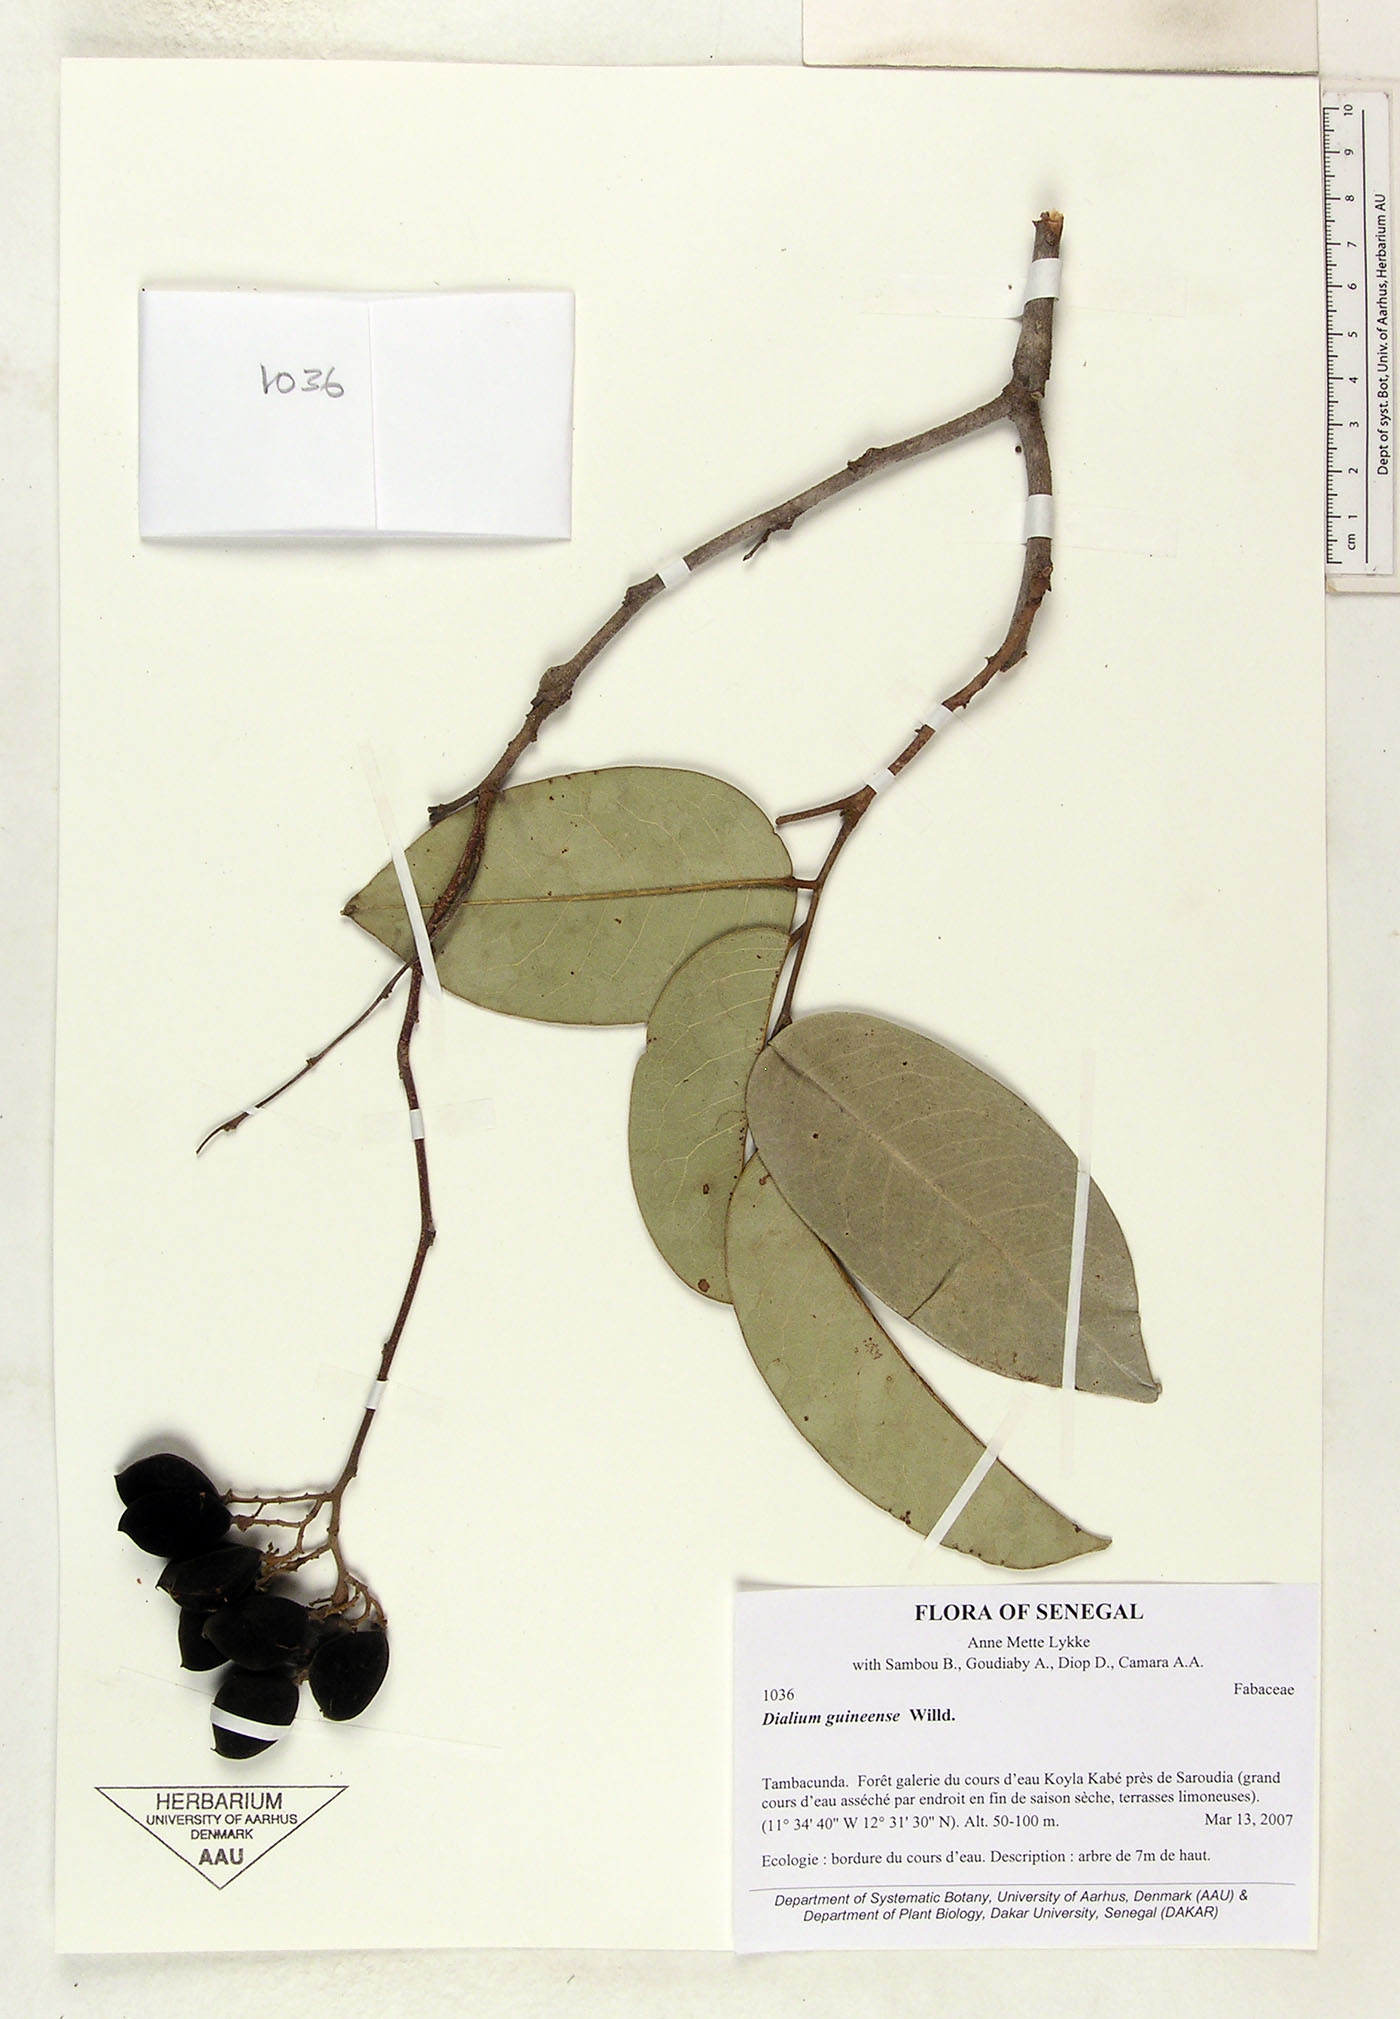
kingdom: Plantae
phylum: Tracheophyta
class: Magnoliopsida
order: Fabales
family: Fabaceae
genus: Dialium
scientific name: Dialium guineense
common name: Sierra leone-tamarind
